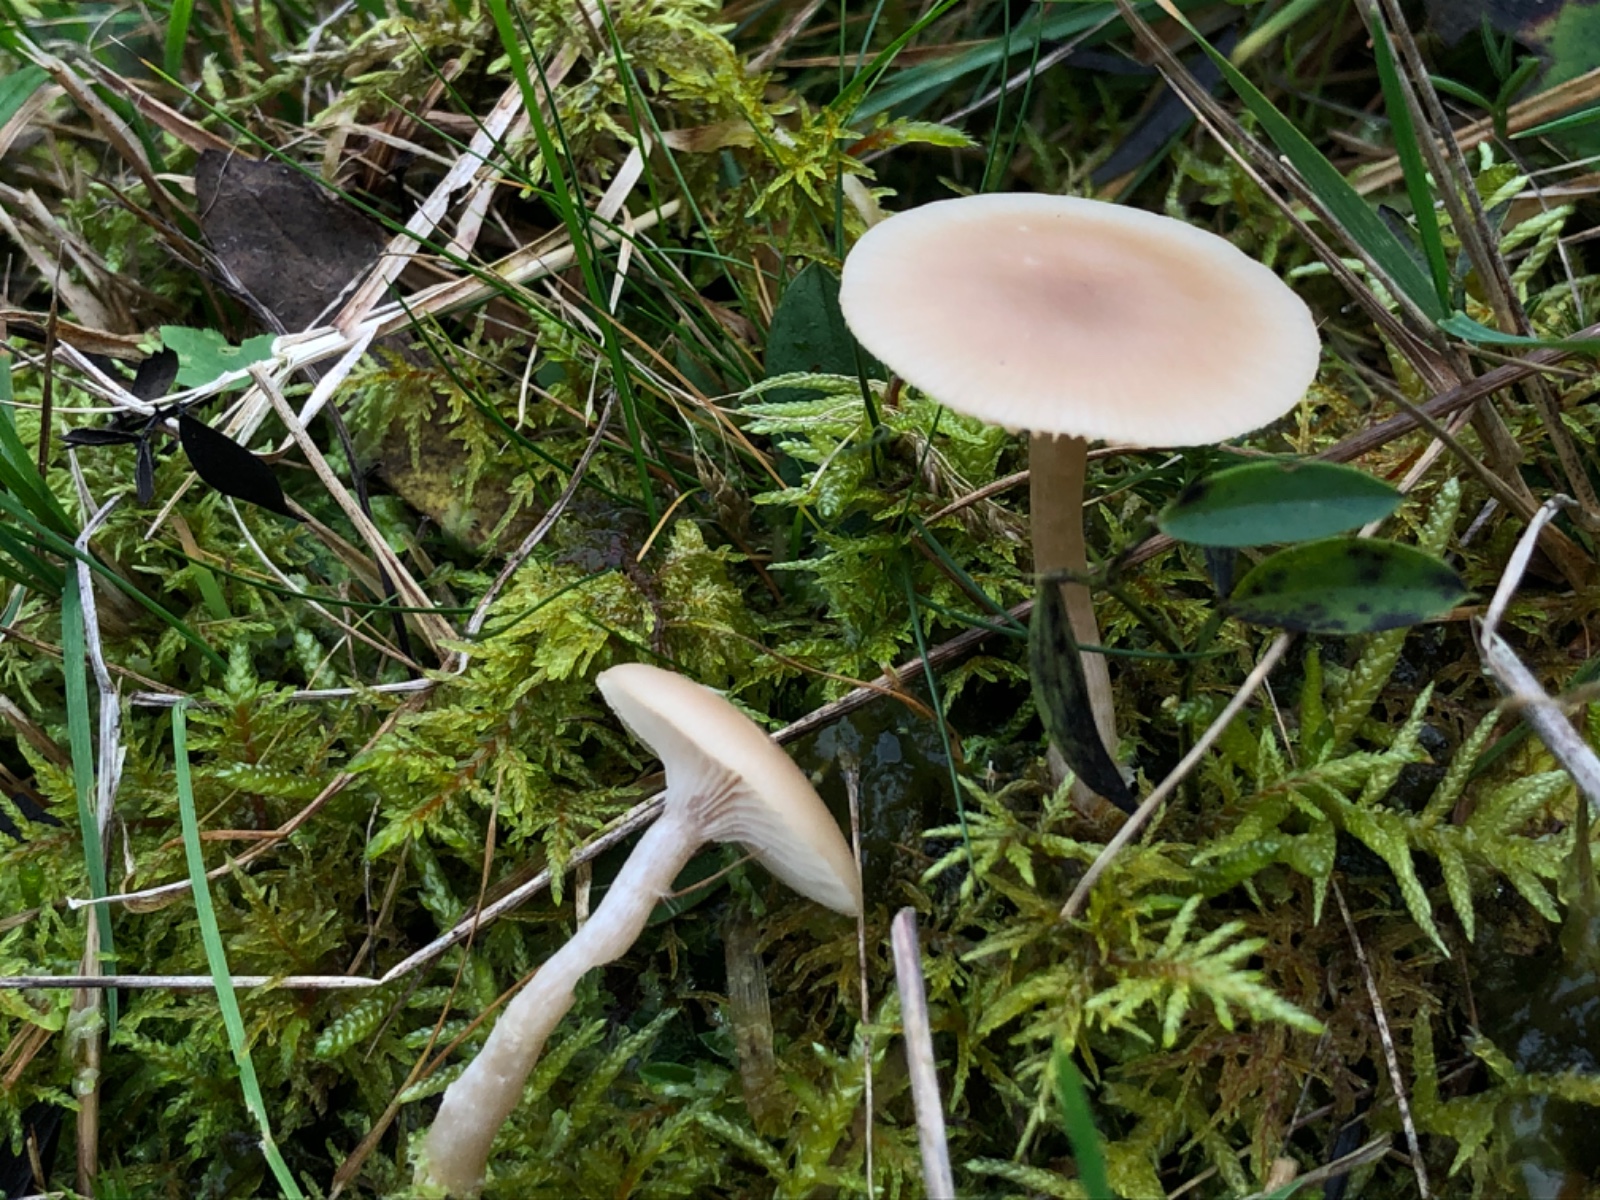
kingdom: Fungi
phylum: Basidiomycota
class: Agaricomycetes
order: Agaricales
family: Tricholomataceae
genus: Clitocybe
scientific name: Clitocybe fragrans
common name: vellugtende tragthat
